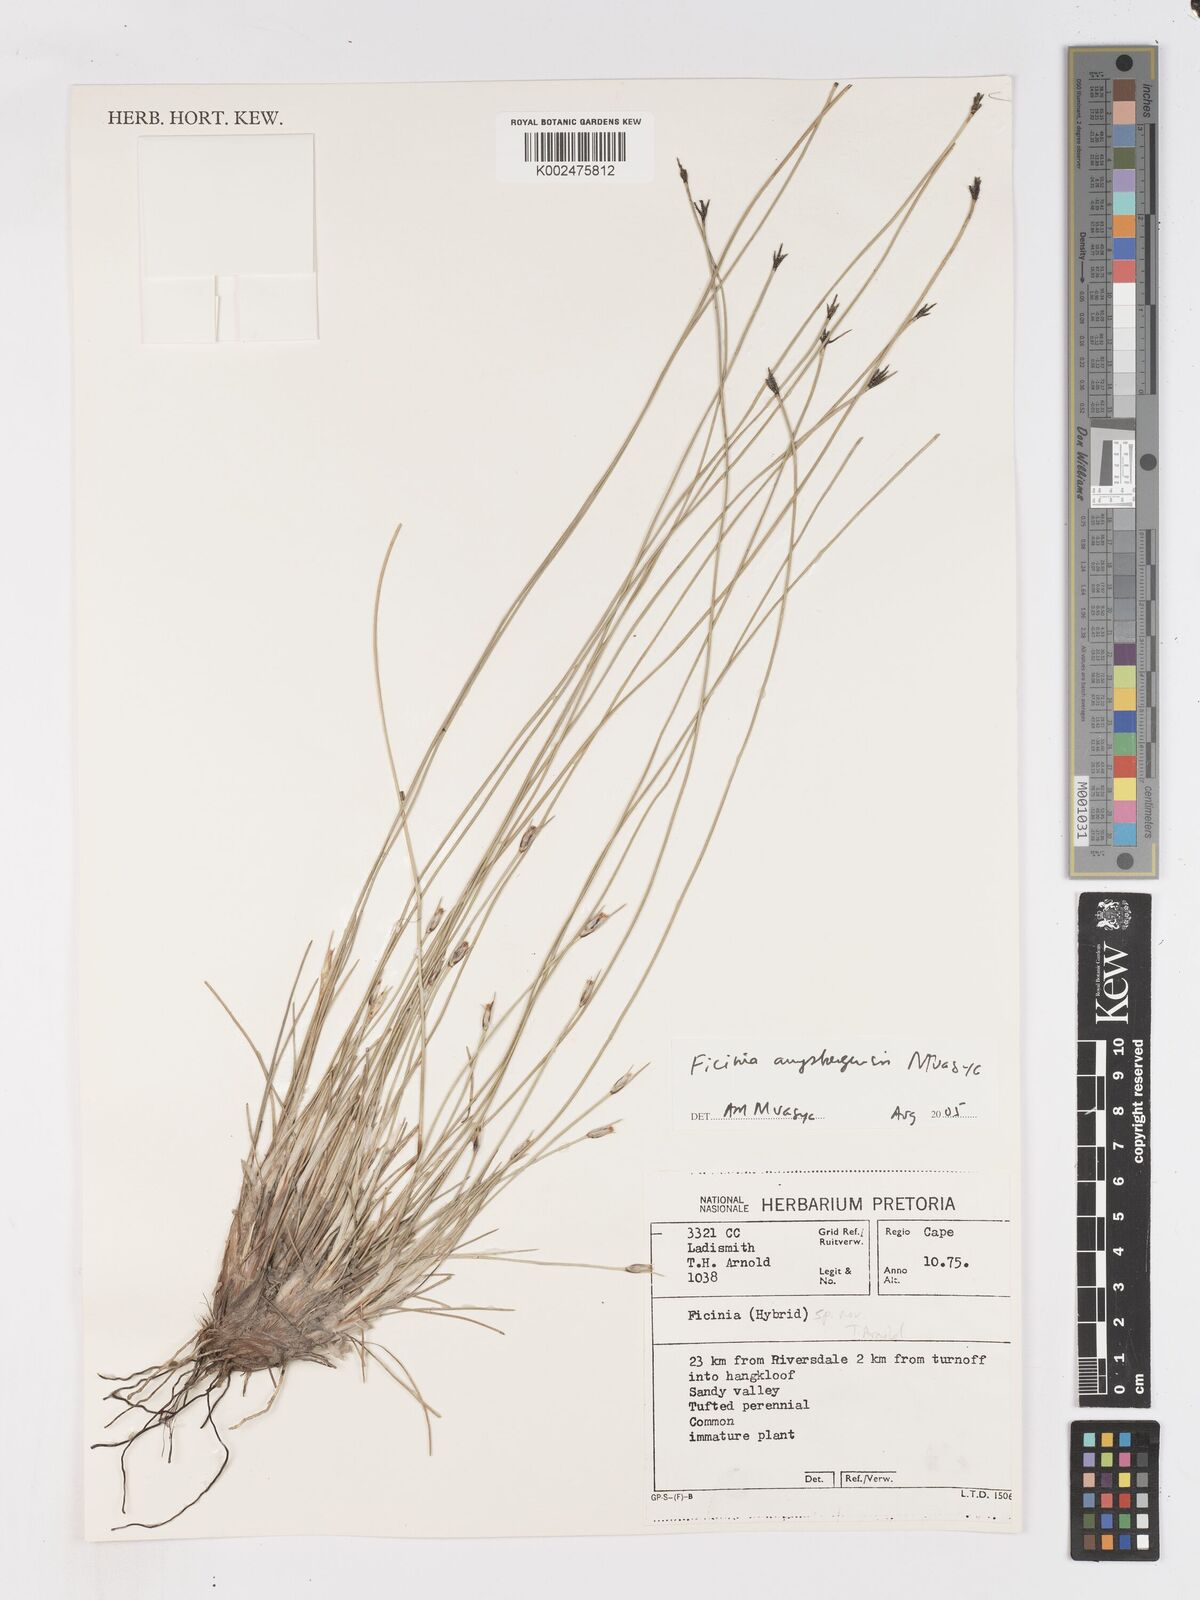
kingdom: Plantae
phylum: Tracheophyta
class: Liliopsida
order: Poales
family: Cyperaceae
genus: Ficinia
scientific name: Ficinia anysbergensis
